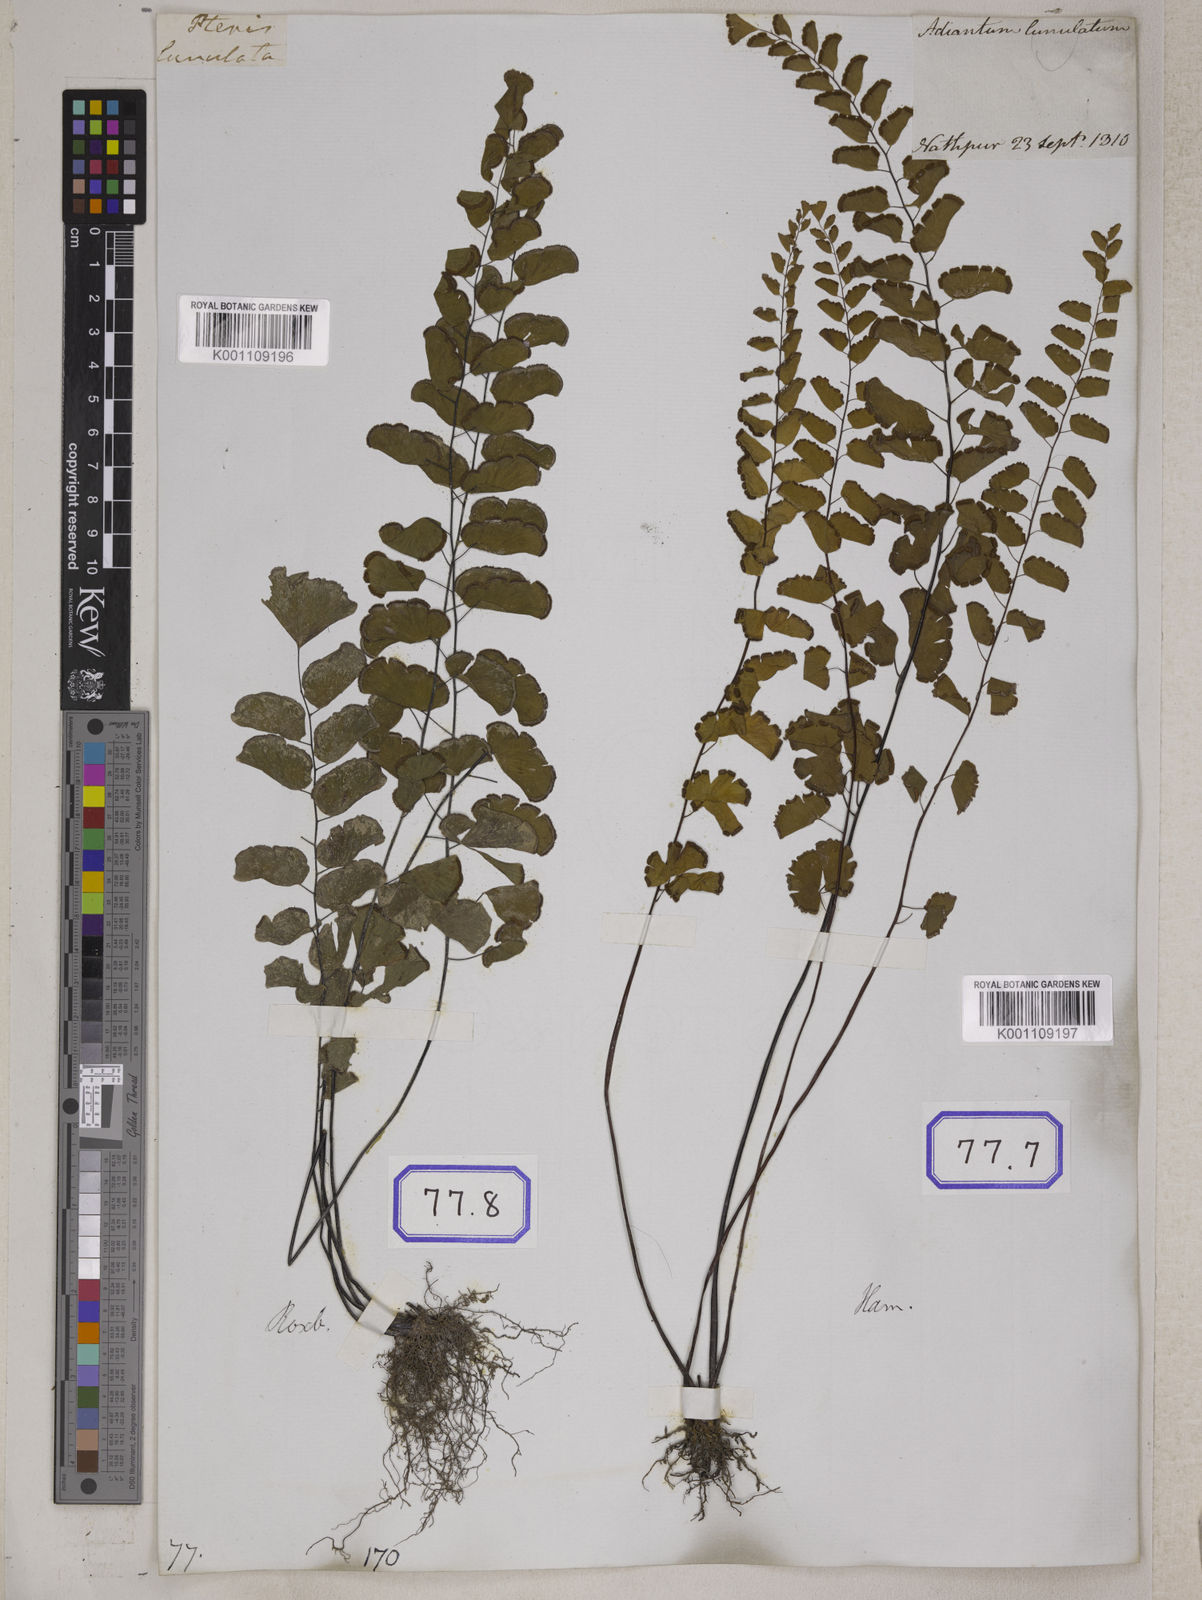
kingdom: Plantae
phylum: Tracheophyta
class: Polypodiopsida
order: Polypodiales
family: Pteridaceae
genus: Adiantum
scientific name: Adiantum philippense
